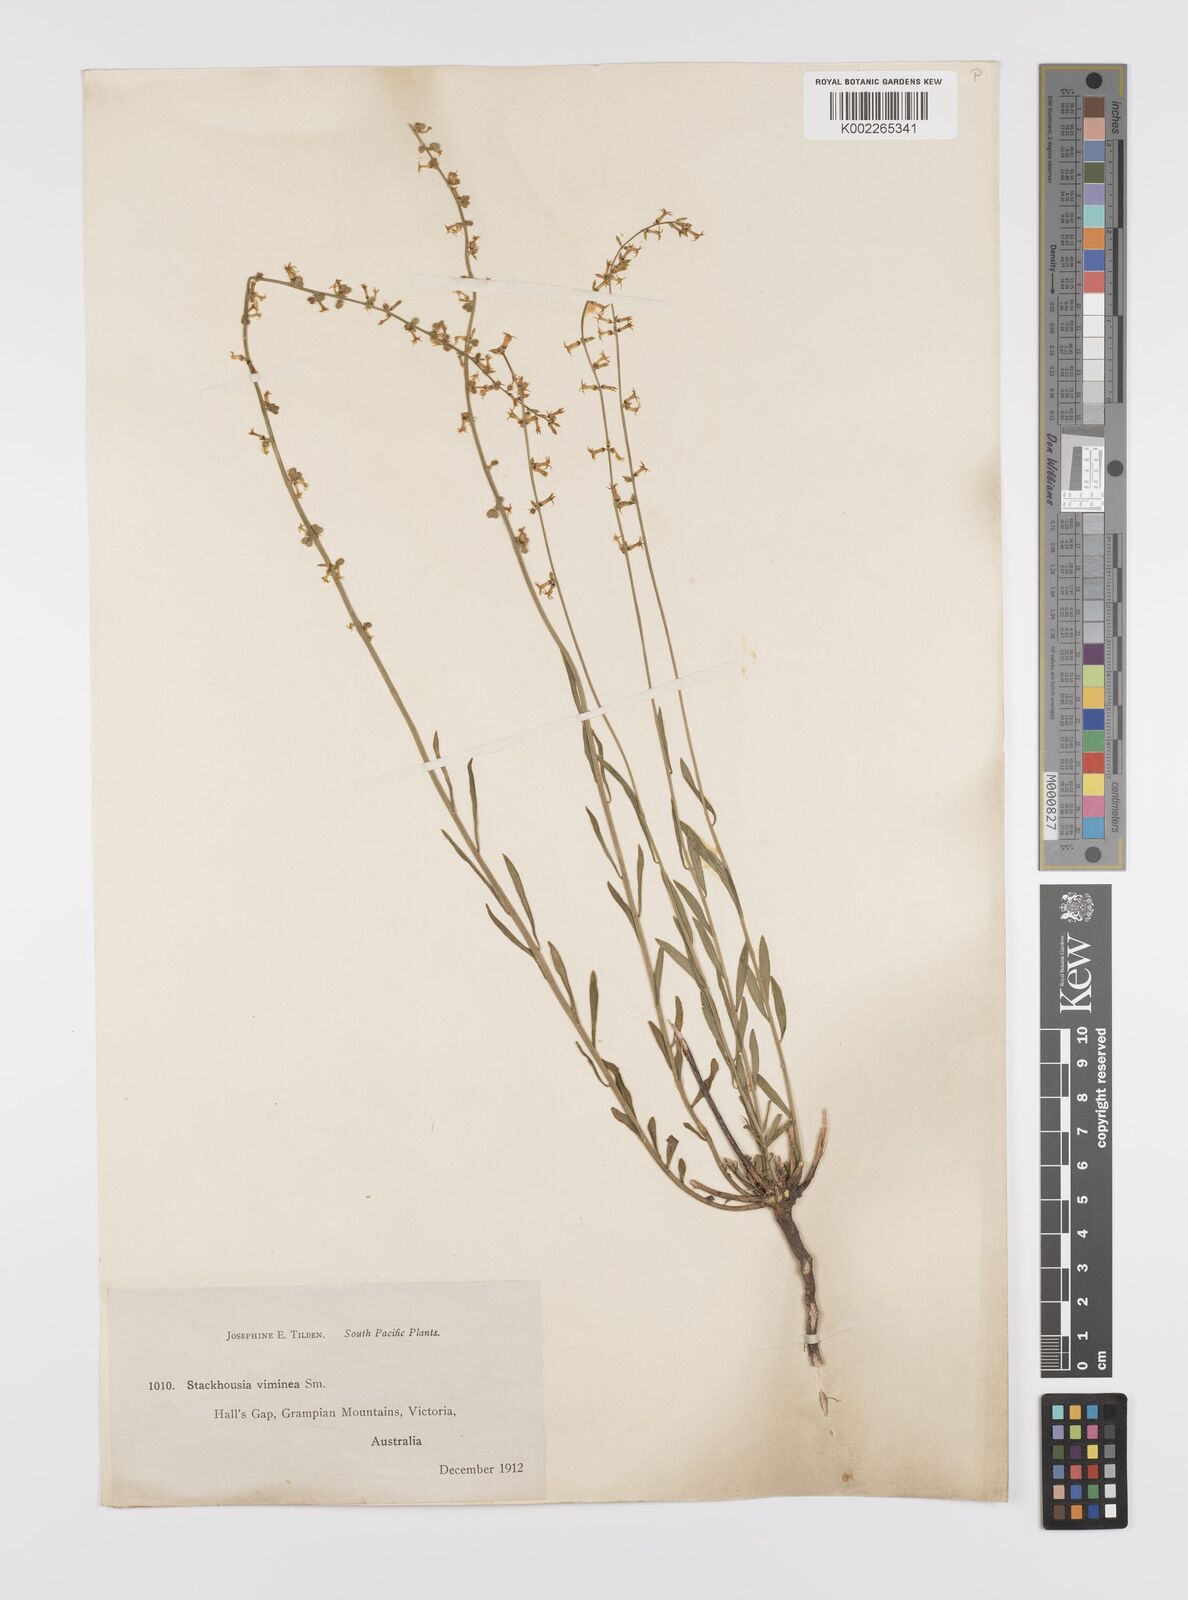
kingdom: Plantae
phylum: Tracheophyta
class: Magnoliopsida
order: Celastrales
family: Celastraceae
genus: Stackhousia
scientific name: Stackhousia viminea
